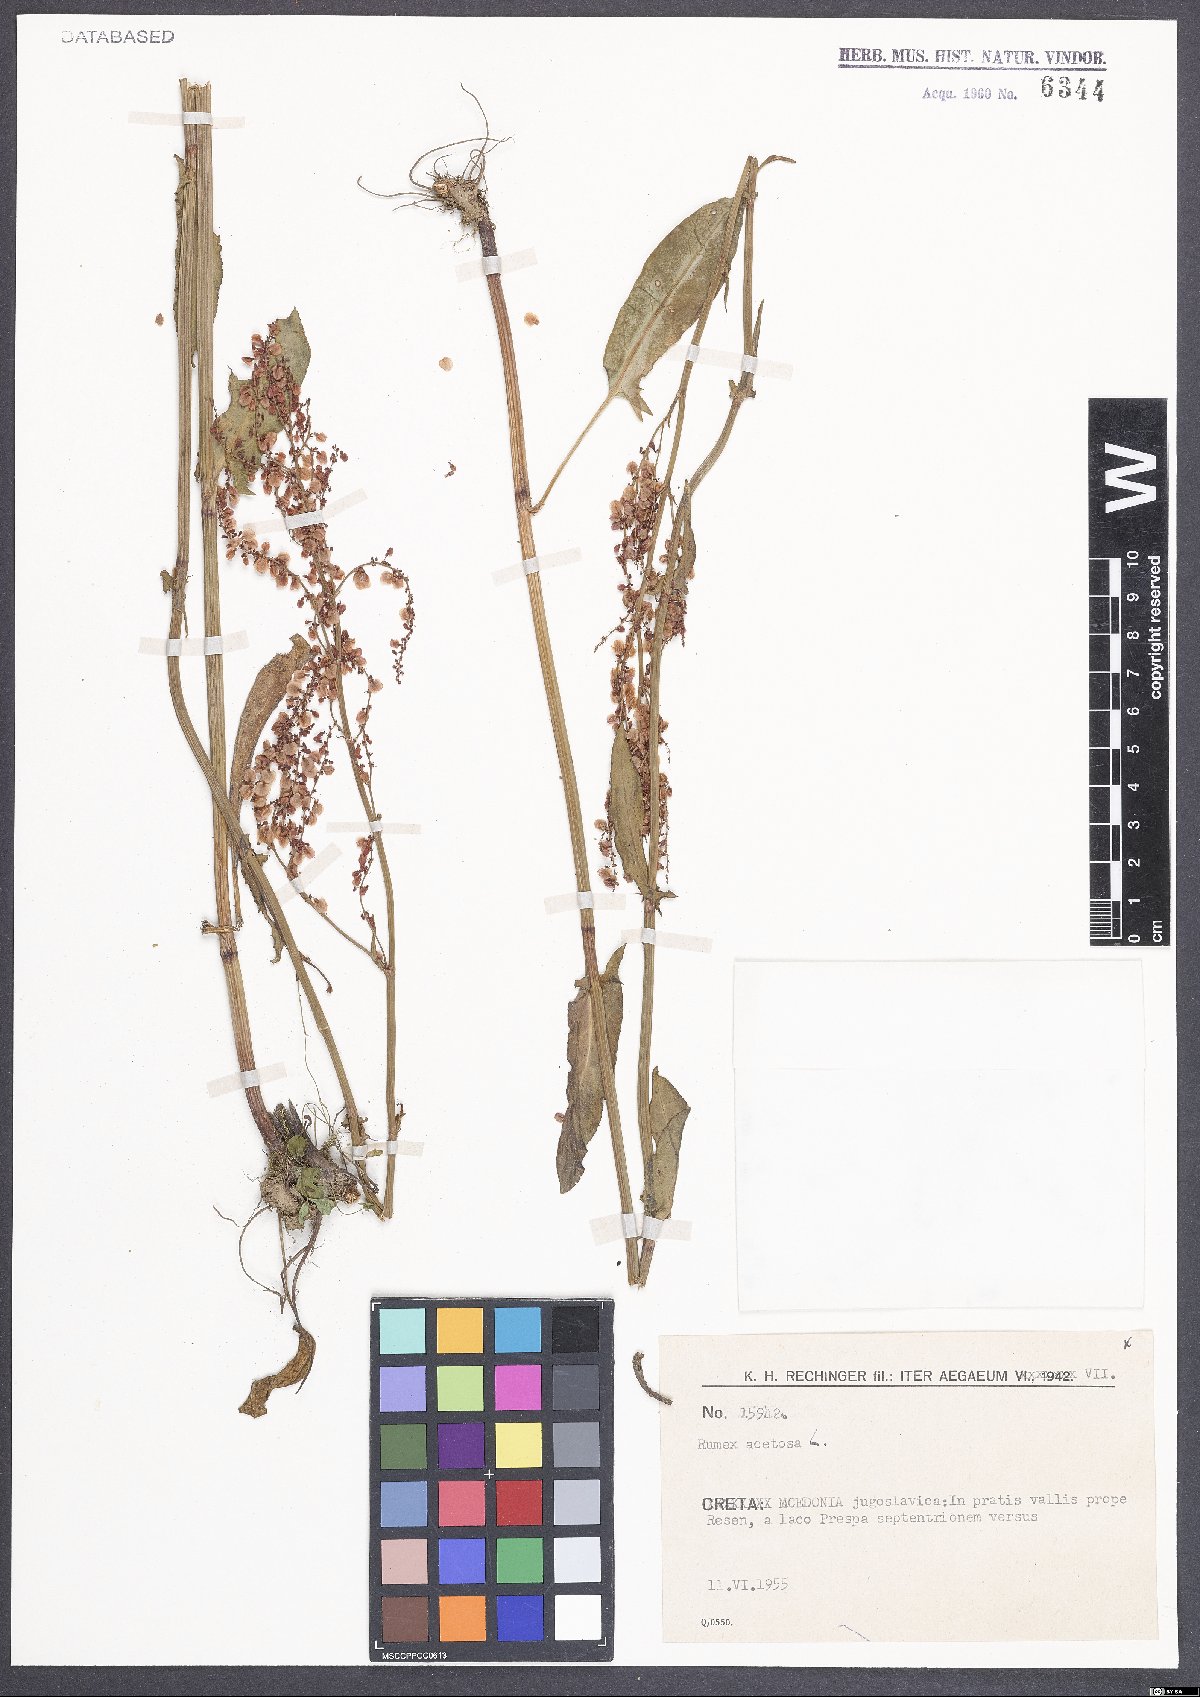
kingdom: Plantae
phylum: Tracheophyta
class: Magnoliopsida
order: Caryophyllales
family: Polygonaceae
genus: Rumex
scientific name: Rumex acetosa
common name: Garden sorrel
